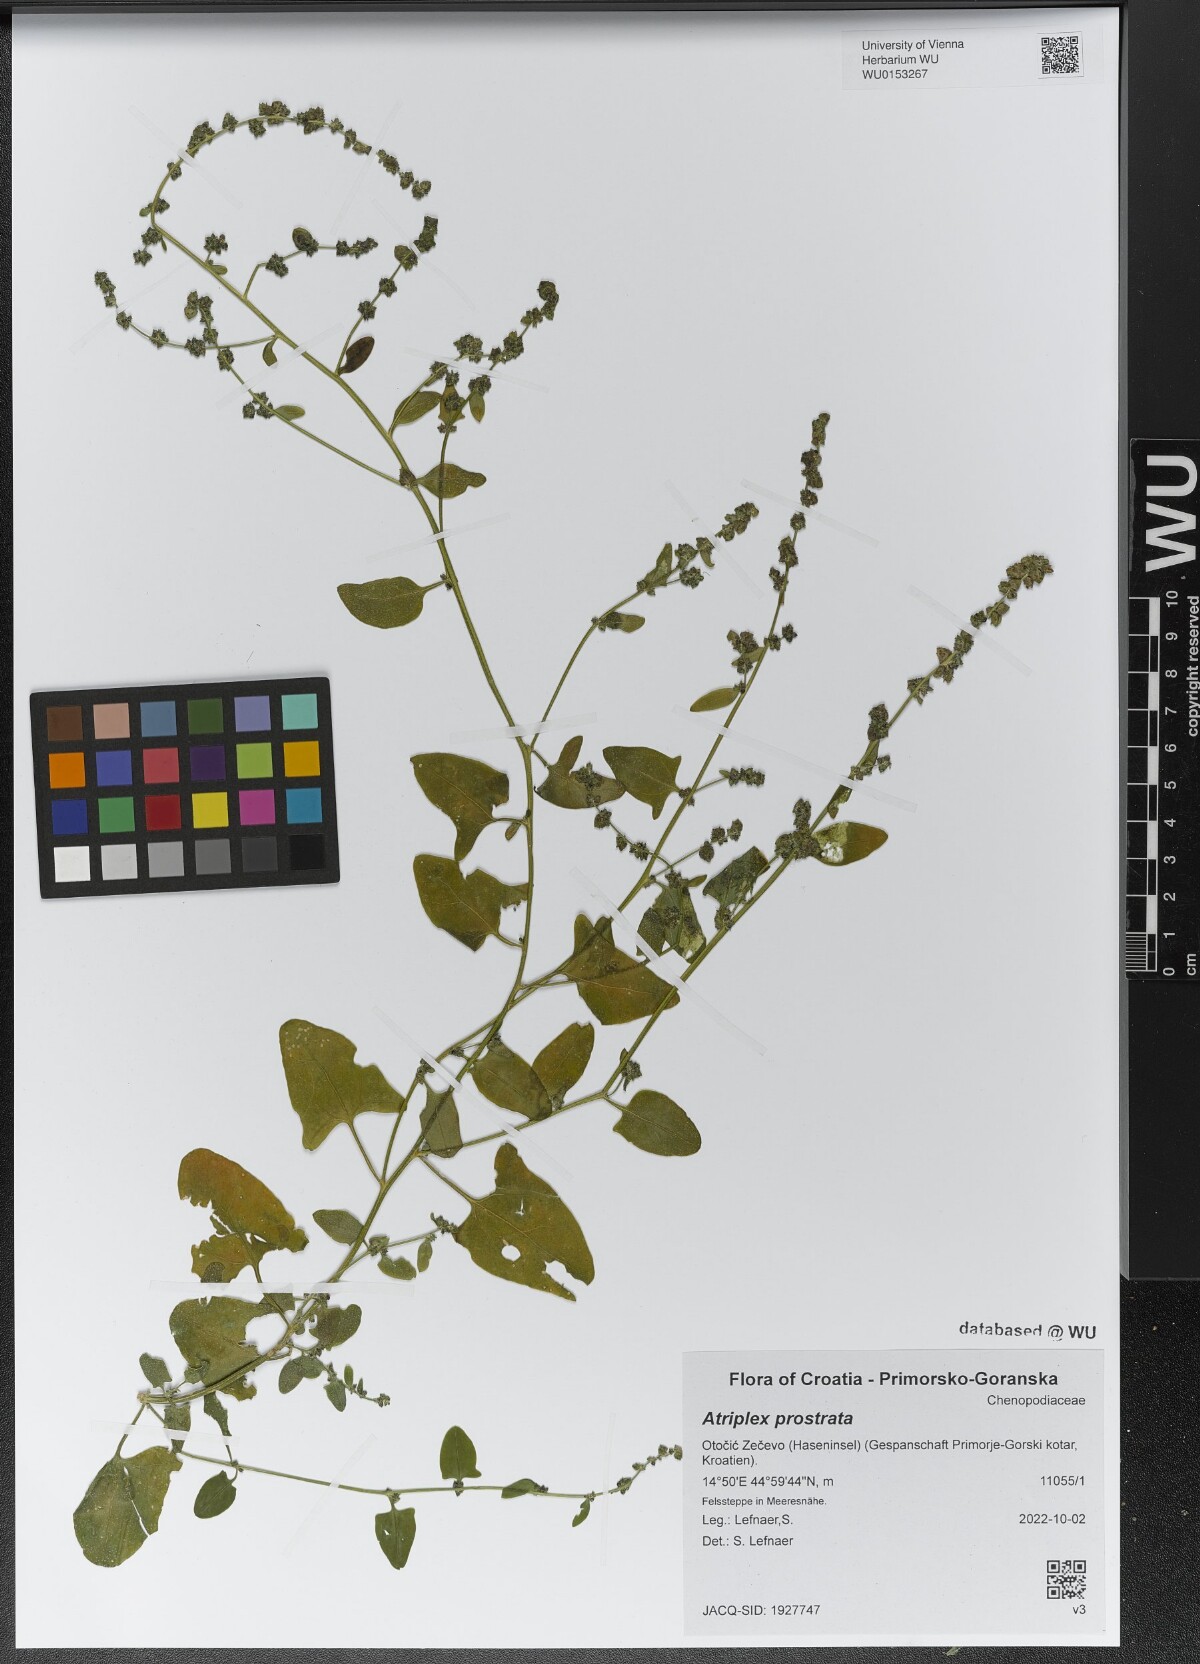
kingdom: Plantae
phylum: Tracheophyta
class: Magnoliopsida
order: Caryophyllales
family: Amaranthaceae
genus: Atriplex
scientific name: Atriplex prostrata
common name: Spear-leaved orache
